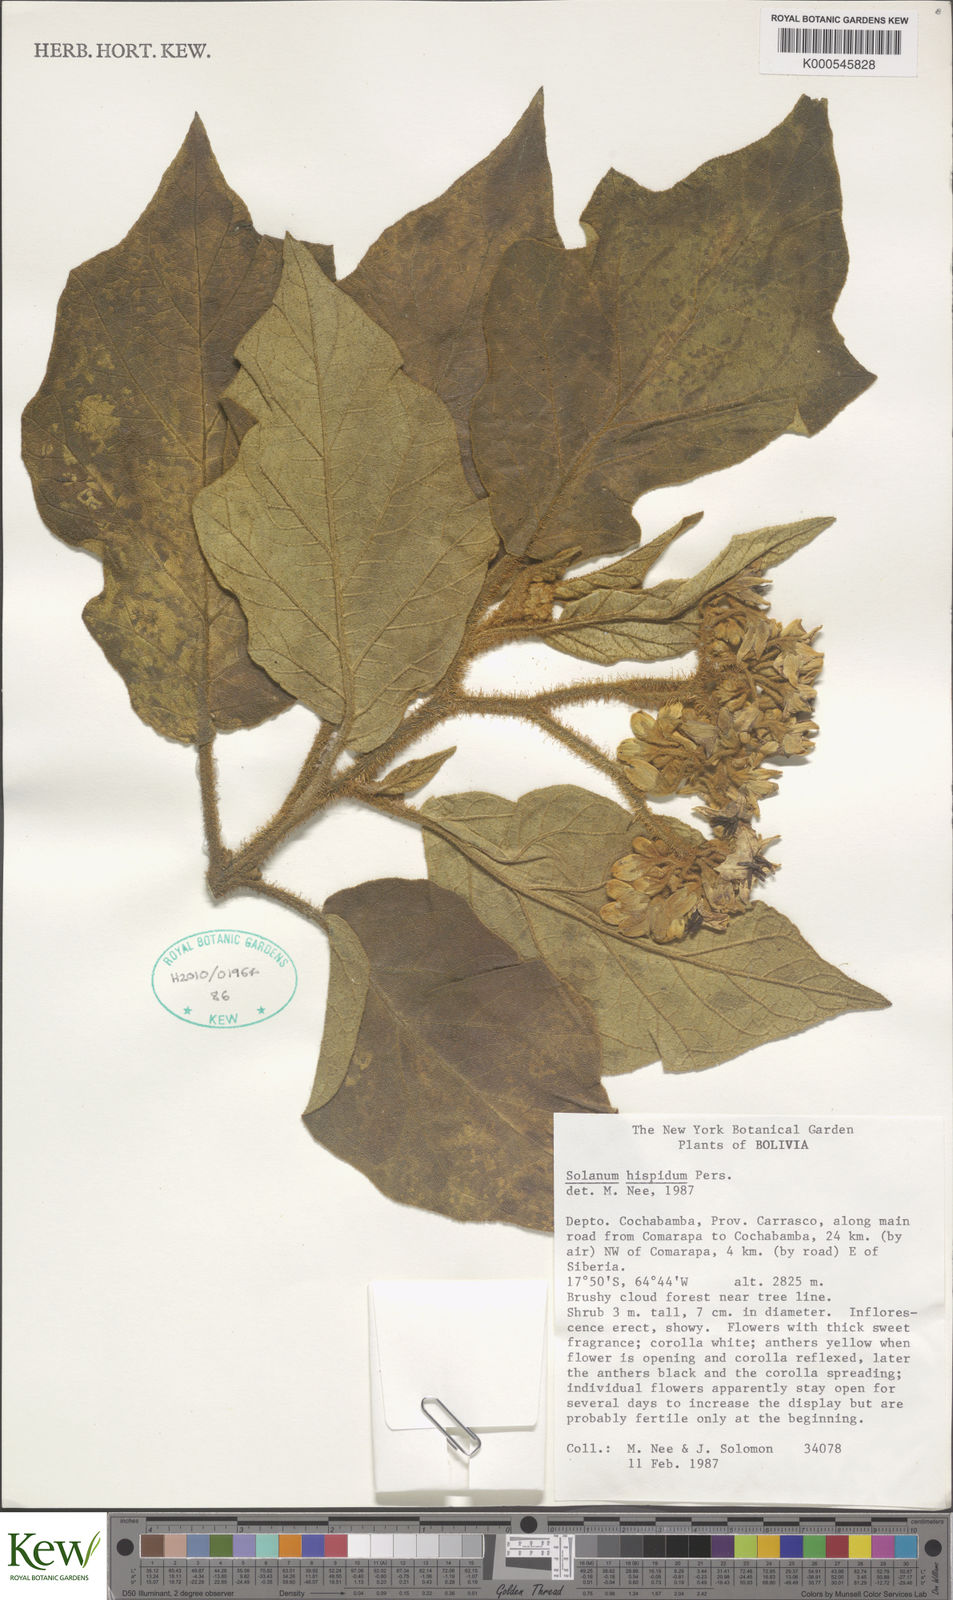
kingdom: Plantae
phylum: Tracheophyta
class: Magnoliopsida
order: Solanales
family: Solanaceae
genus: Solanum
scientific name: Solanum asperolanatum
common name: Devil's-fig
